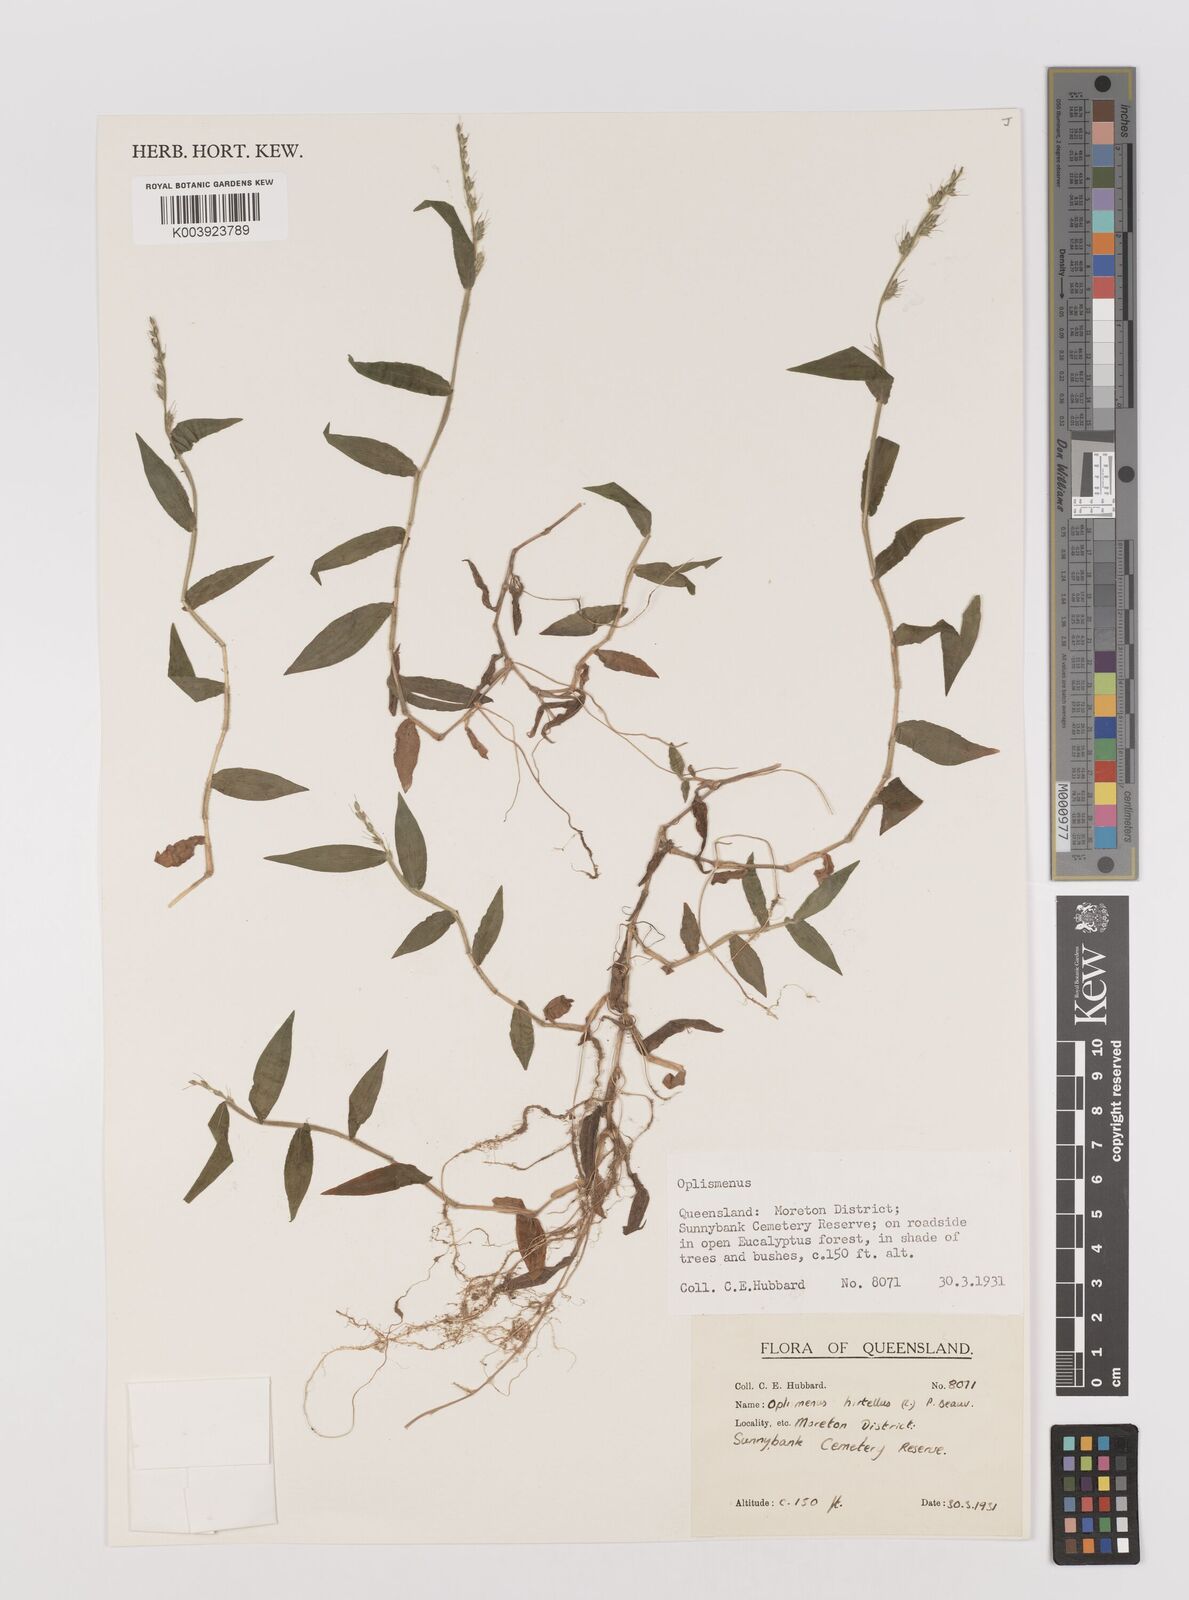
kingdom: Plantae
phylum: Tracheophyta
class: Liliopsida
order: Poales
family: Poaceae
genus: Oplismenus
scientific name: Oplismenus hirtellus
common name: Basketgrass
